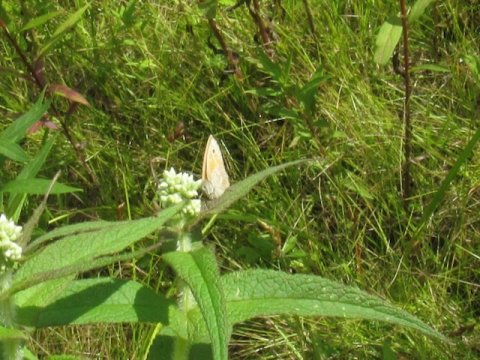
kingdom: Animalia
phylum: Arthropoda
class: Insecta
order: Lepidoptera
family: Nymphalidae
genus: Coenonympha
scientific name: Coenonympha tullia
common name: Large Heath
